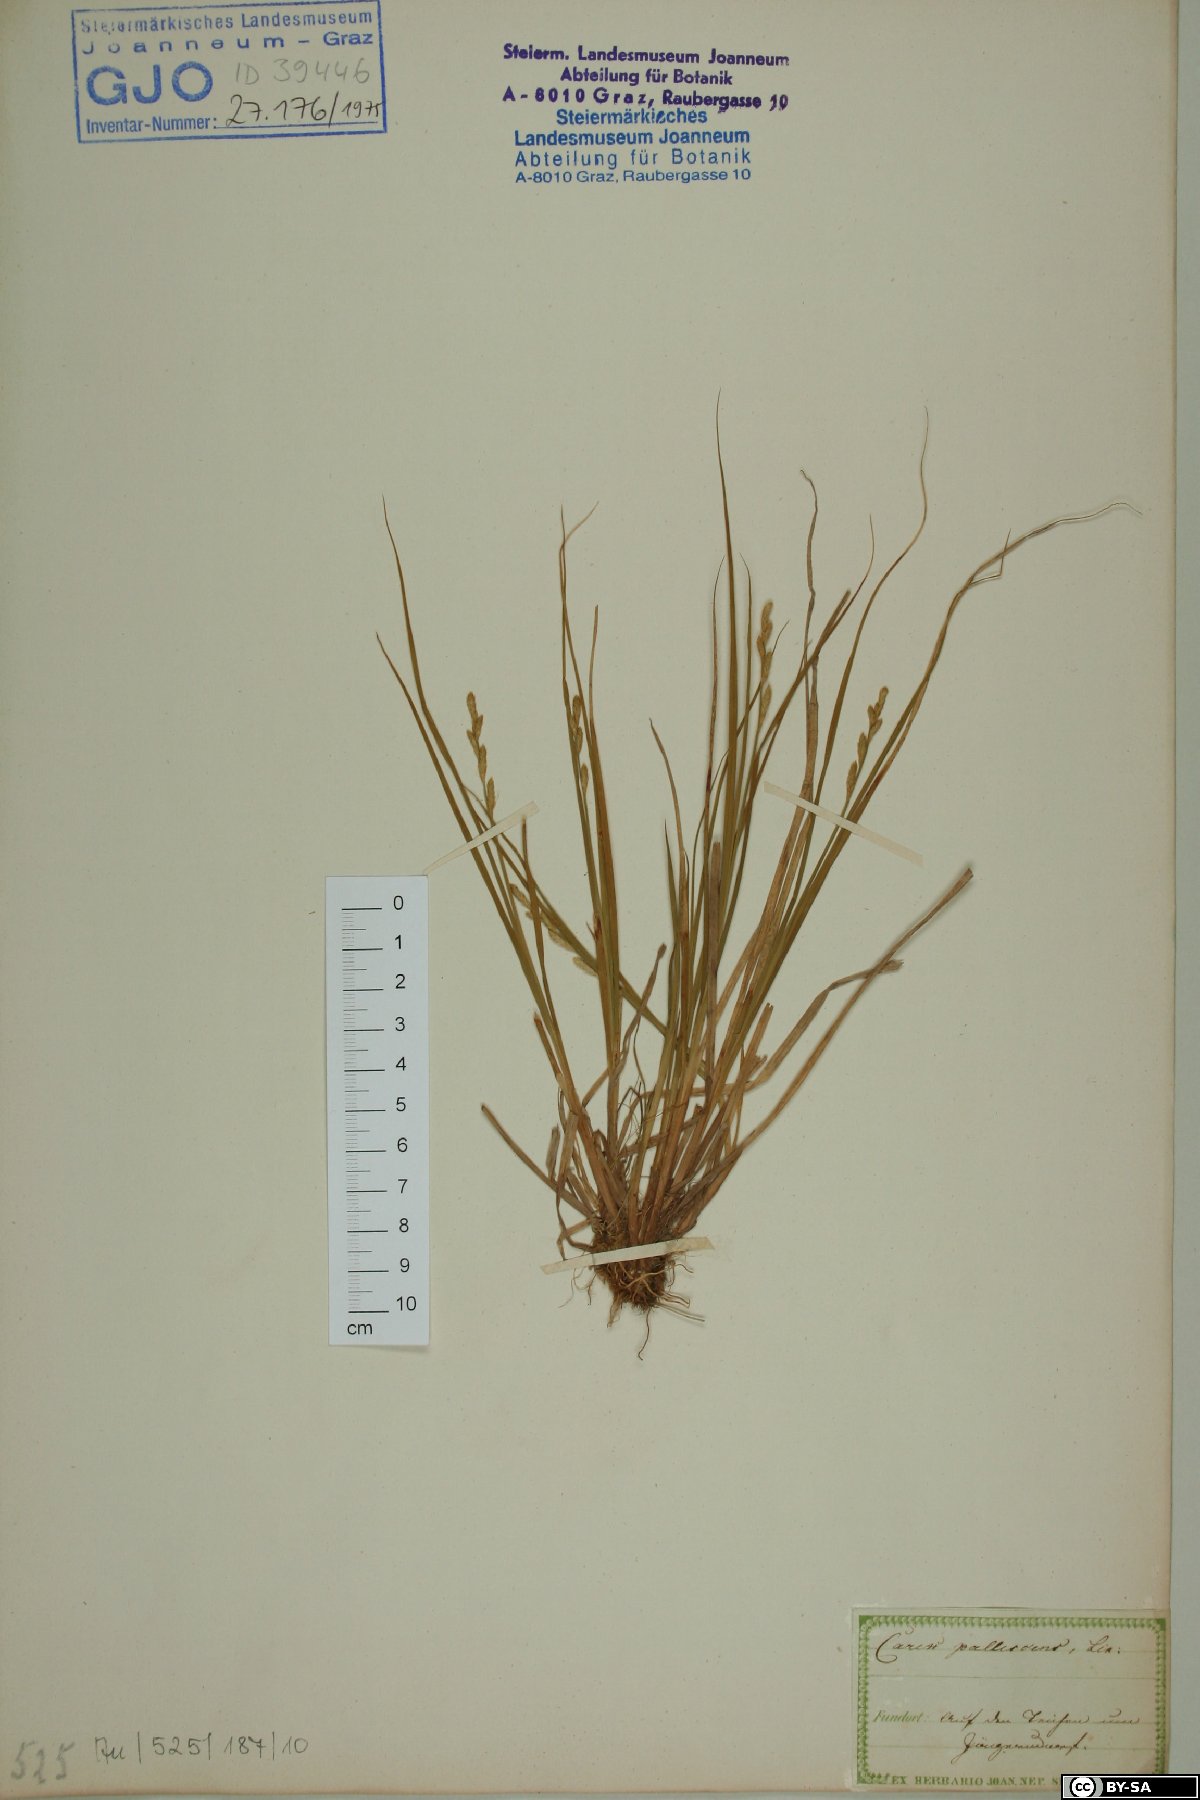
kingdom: Plantae
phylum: Tracheophyta
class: Liliopsida
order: Poales
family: Cyperaceae
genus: Carex
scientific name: Carex pallescens
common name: Pale sedge
